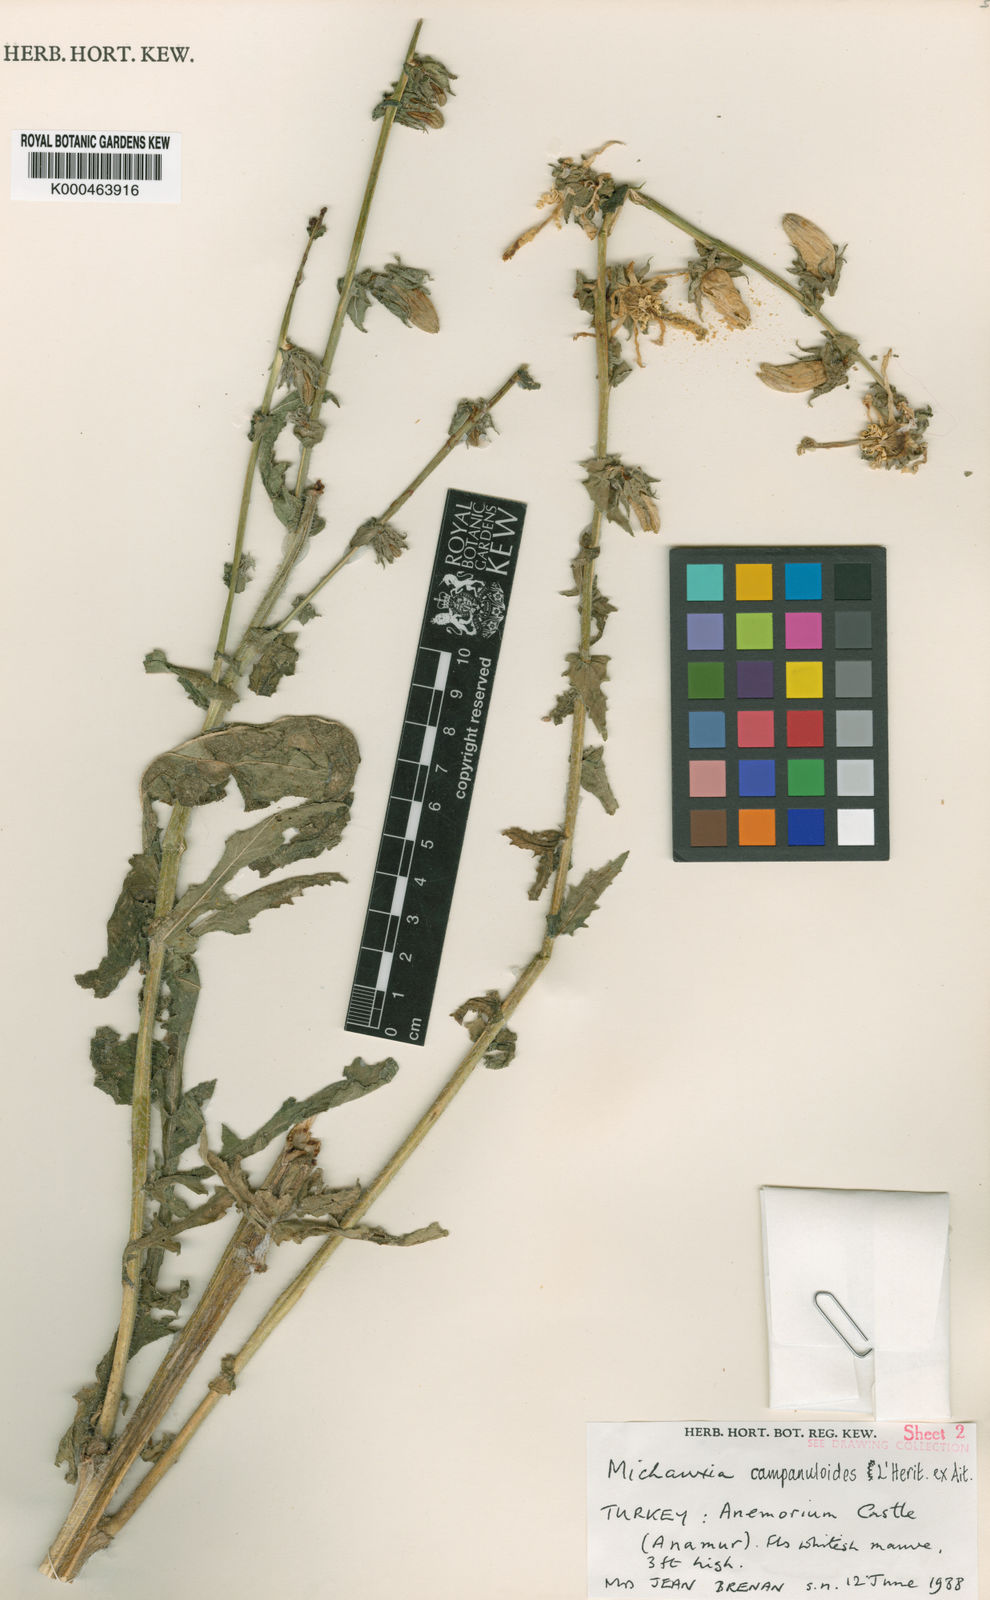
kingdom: Plantae
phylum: Tracheophyta
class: Magnoliopsida
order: Asterales
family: Campanulaceae
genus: Michauxia
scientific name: Michauxia
